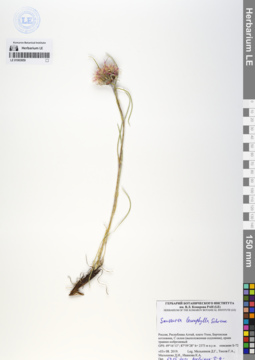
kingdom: Plantae
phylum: Tracheophyta
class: Magnoliopsida
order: Asterales
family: Asteraceae
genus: Saussurea
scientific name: Saussurea leucophylla
